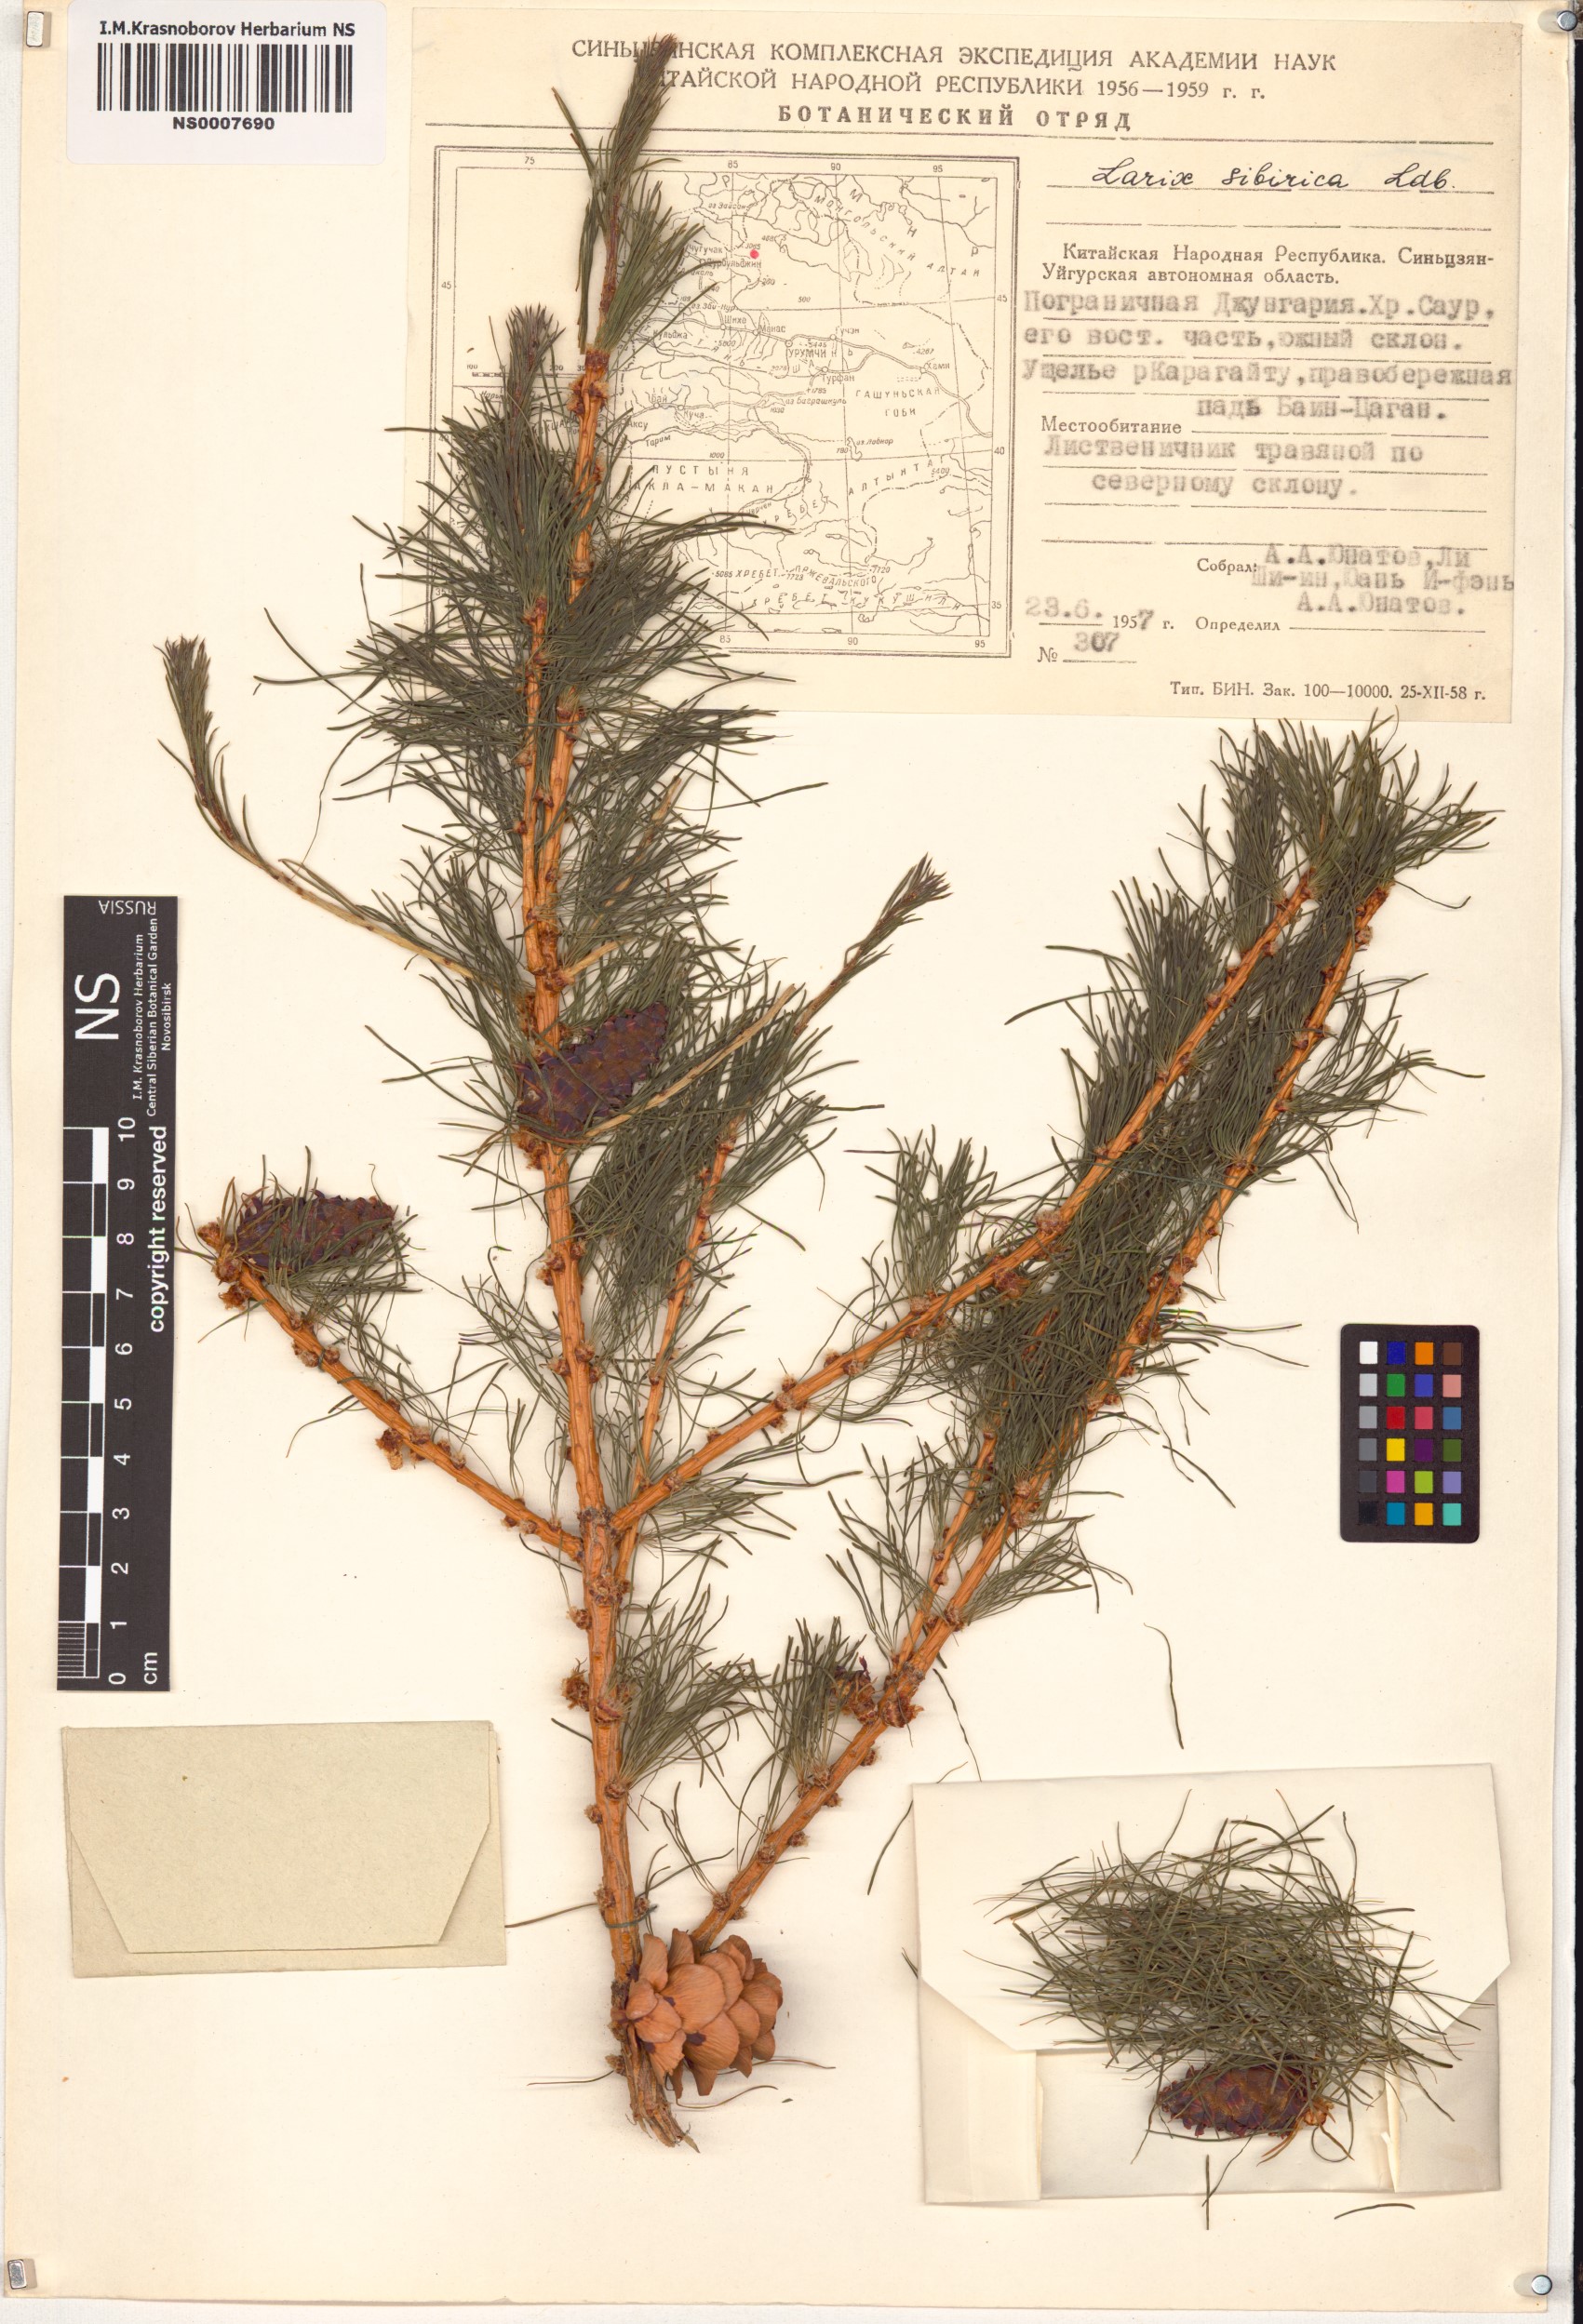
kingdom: Plantae
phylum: Tracheophyta
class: Pinopsida
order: Pinales
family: Pinaceae
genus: Larix
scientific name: Larix sibirica
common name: Siberian larch
